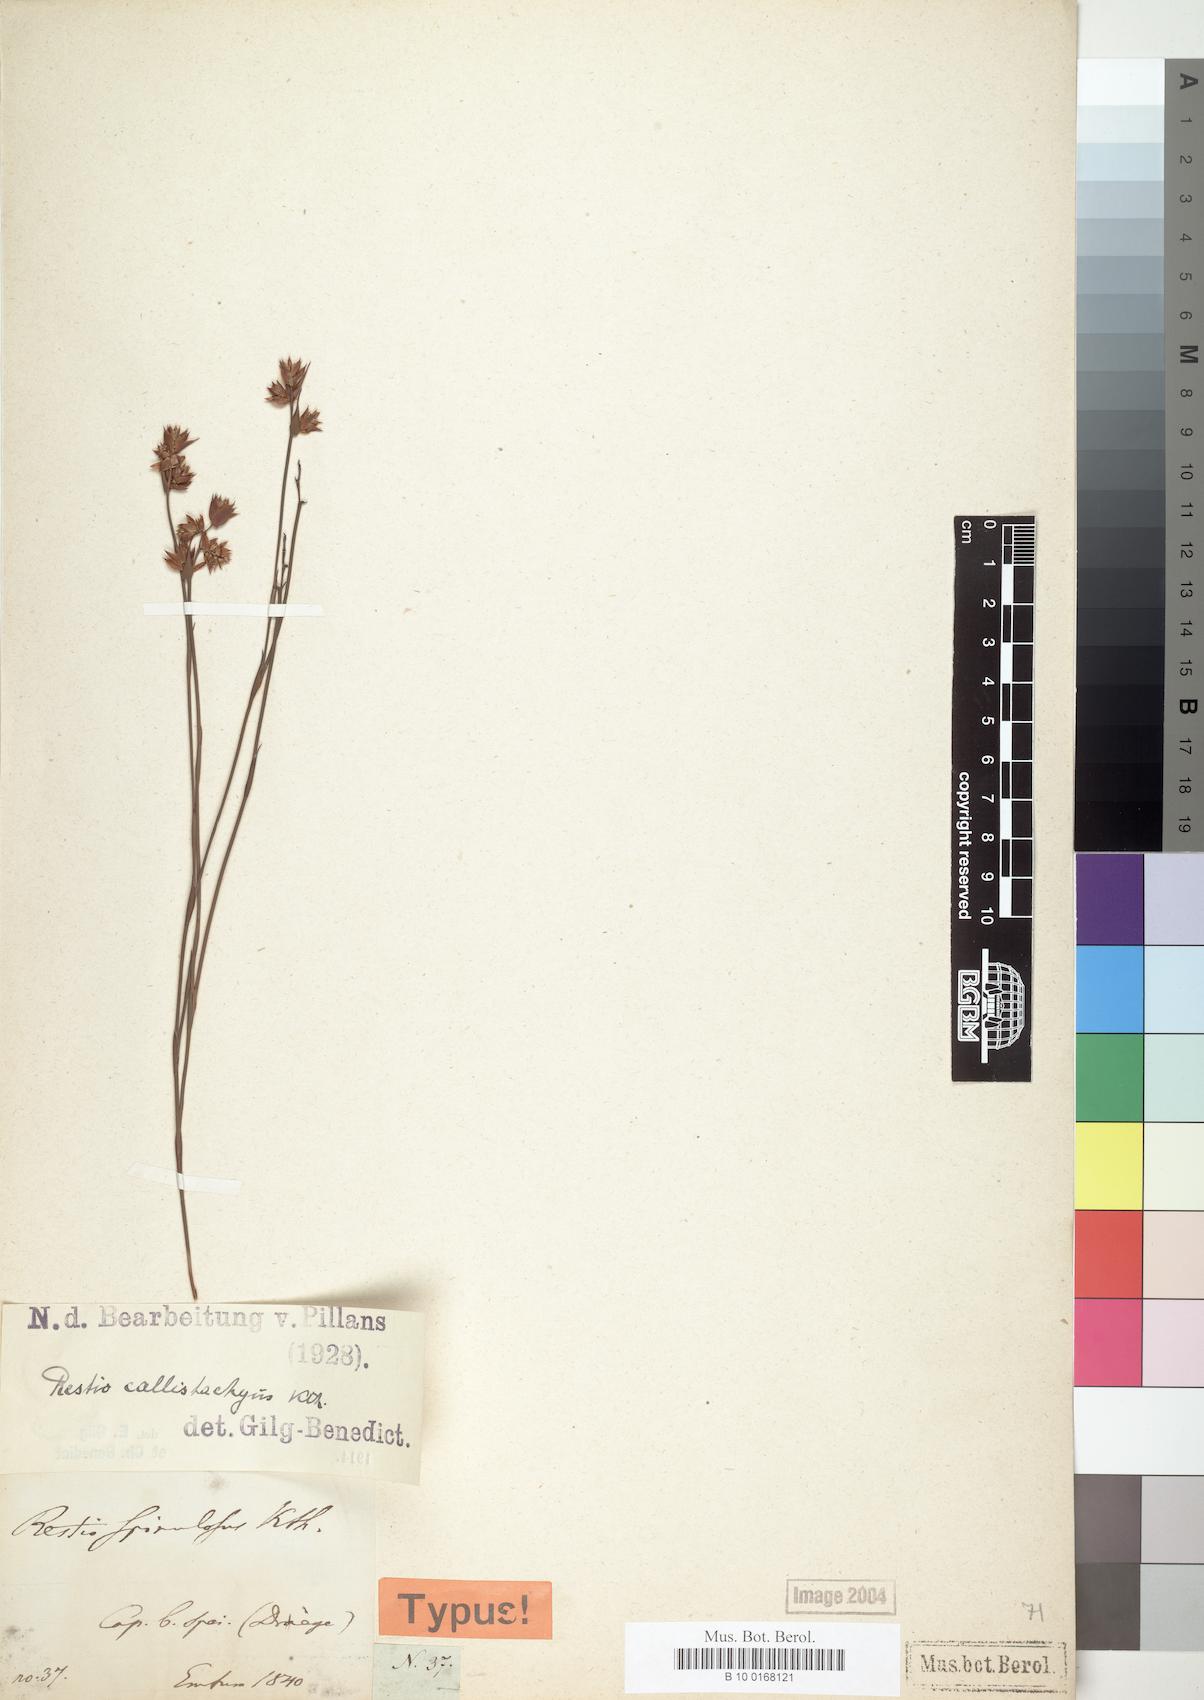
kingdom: Plantae
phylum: Tracheophyta
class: Liliopsida
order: Poales
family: Restionaceae
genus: Platycaulos
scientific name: Platycaulos callistachyus
